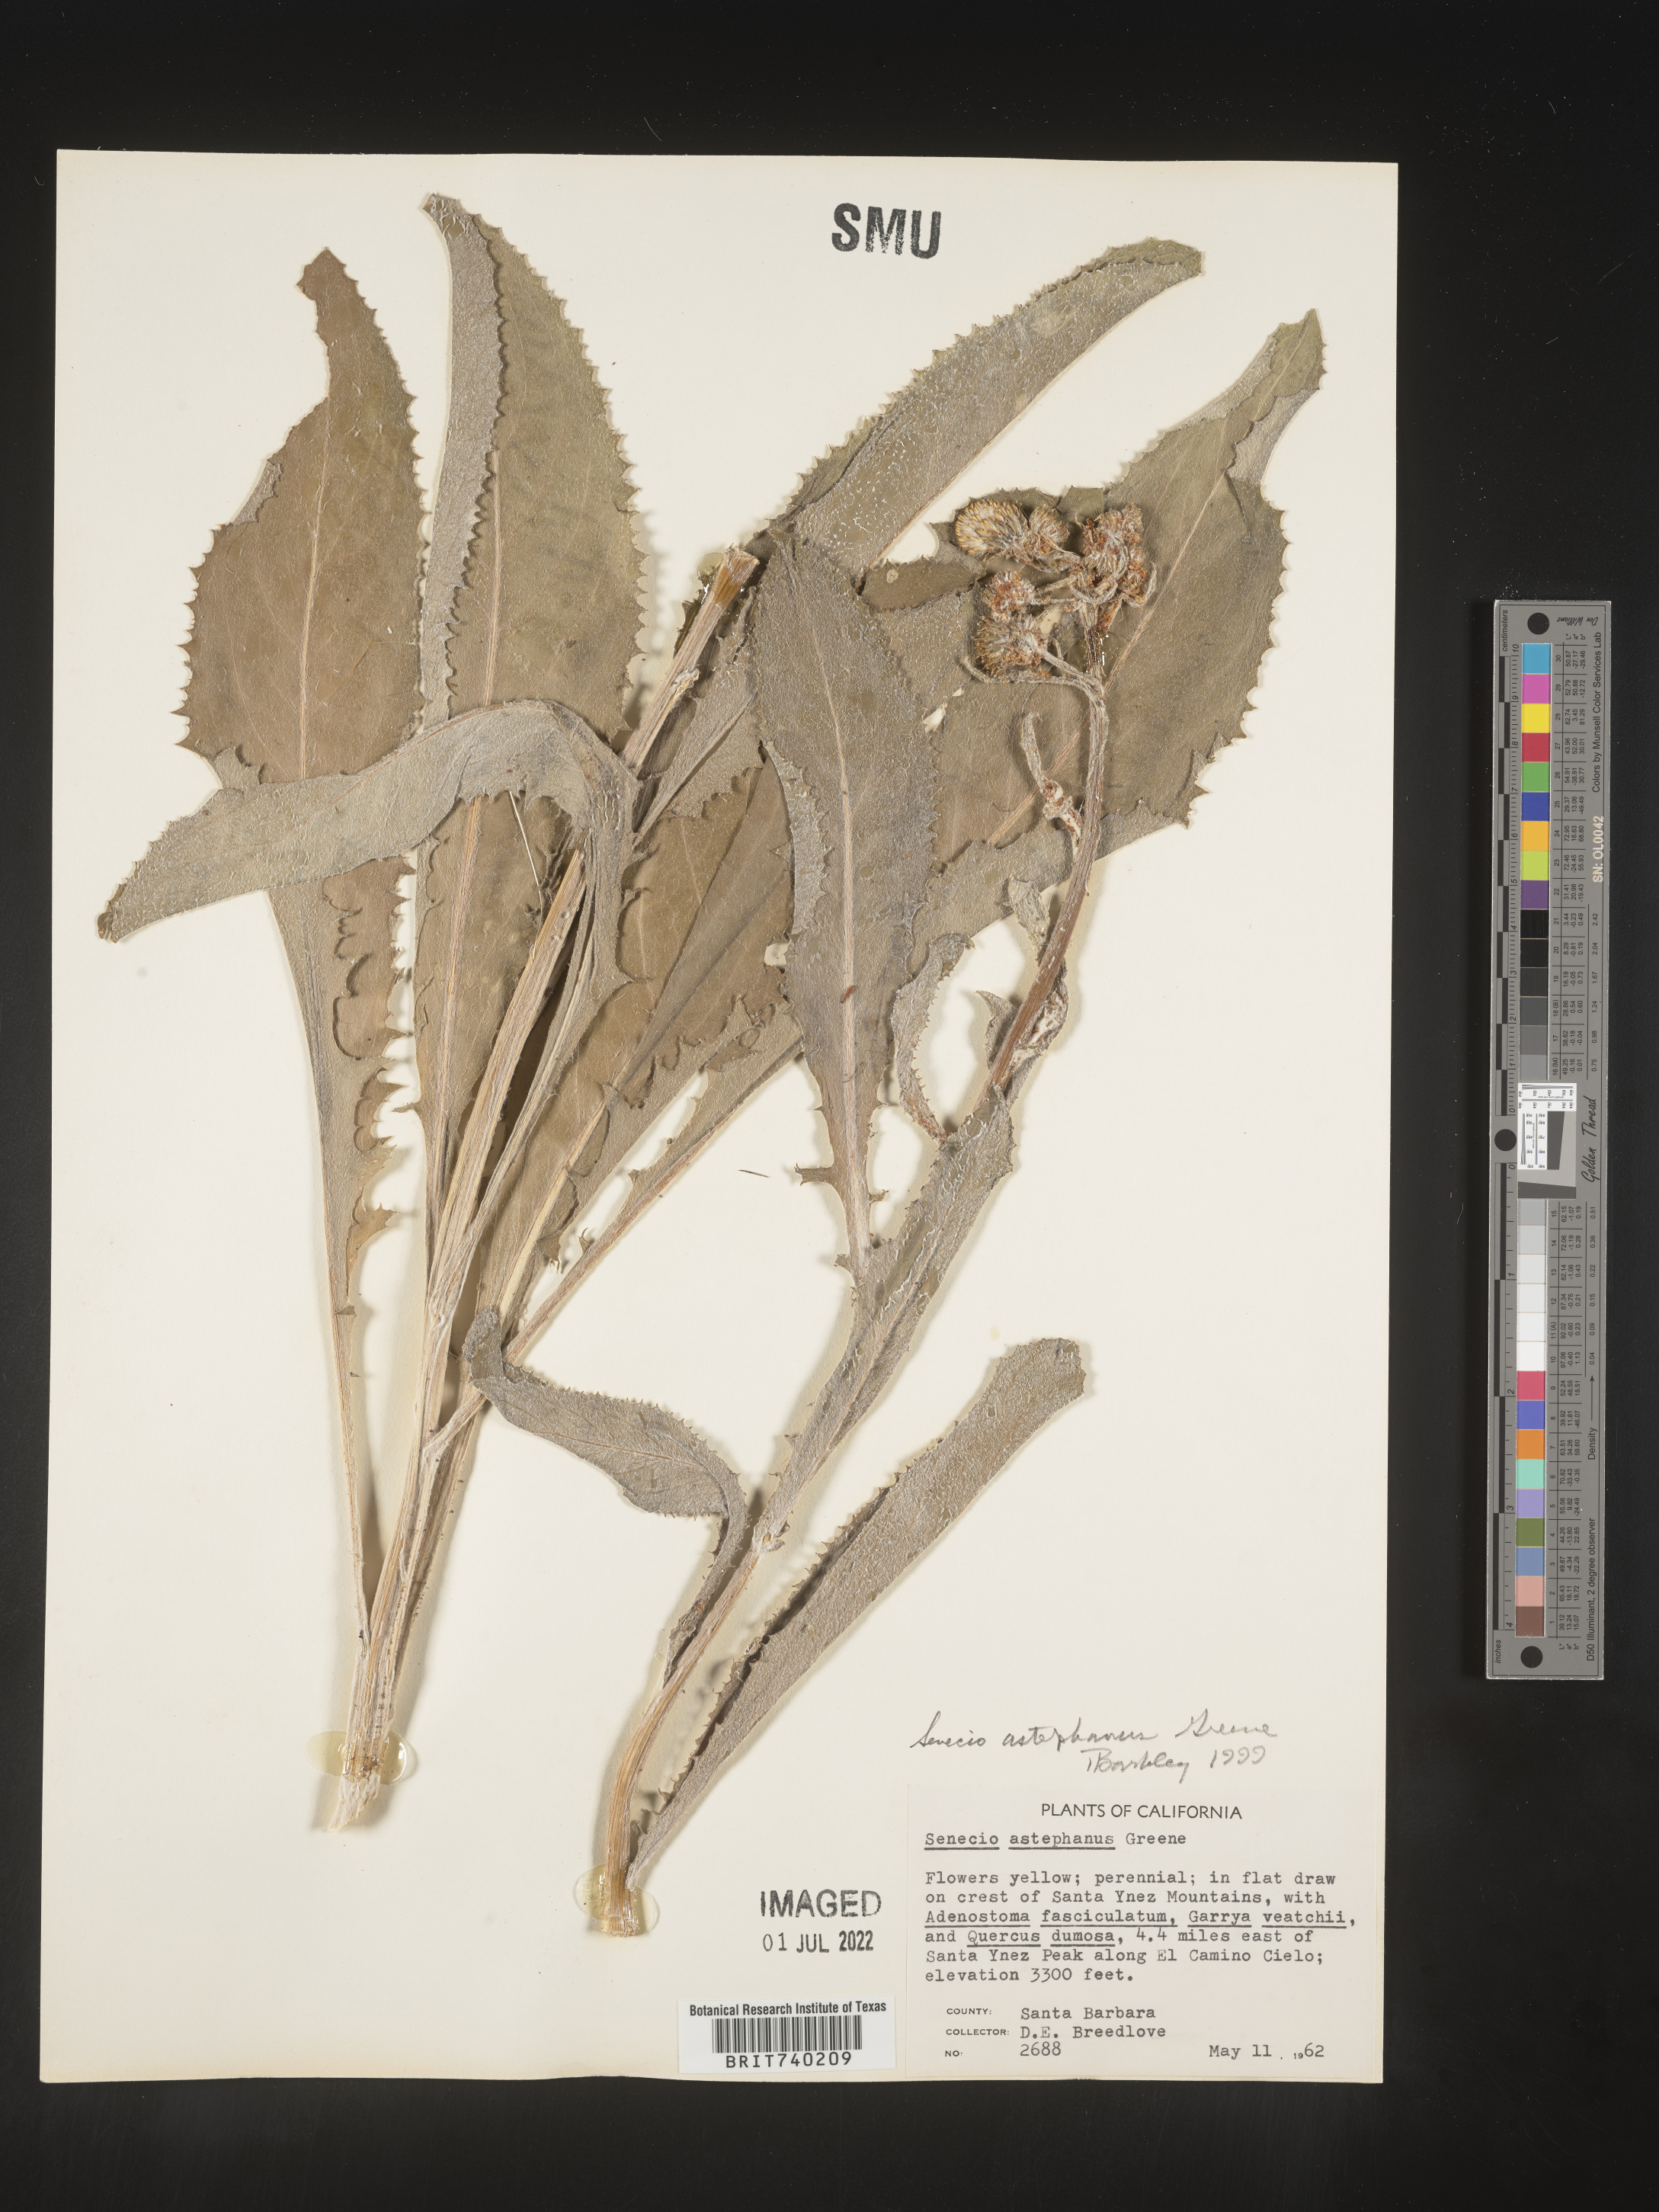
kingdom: Plantae
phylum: Tracheophyta
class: Magnoliopsida
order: Asterales
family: Asteraceae
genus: Senecio
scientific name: Senecio astephanus
